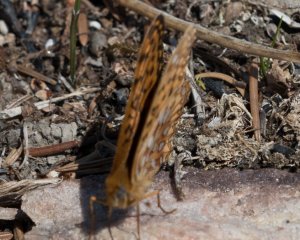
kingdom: Animalia
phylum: Arthropoda
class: Insecta
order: Lepidoptera
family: Nymphalidae
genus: Speyeria
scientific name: Speyeria atlantis
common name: Northwestern Fritillary
